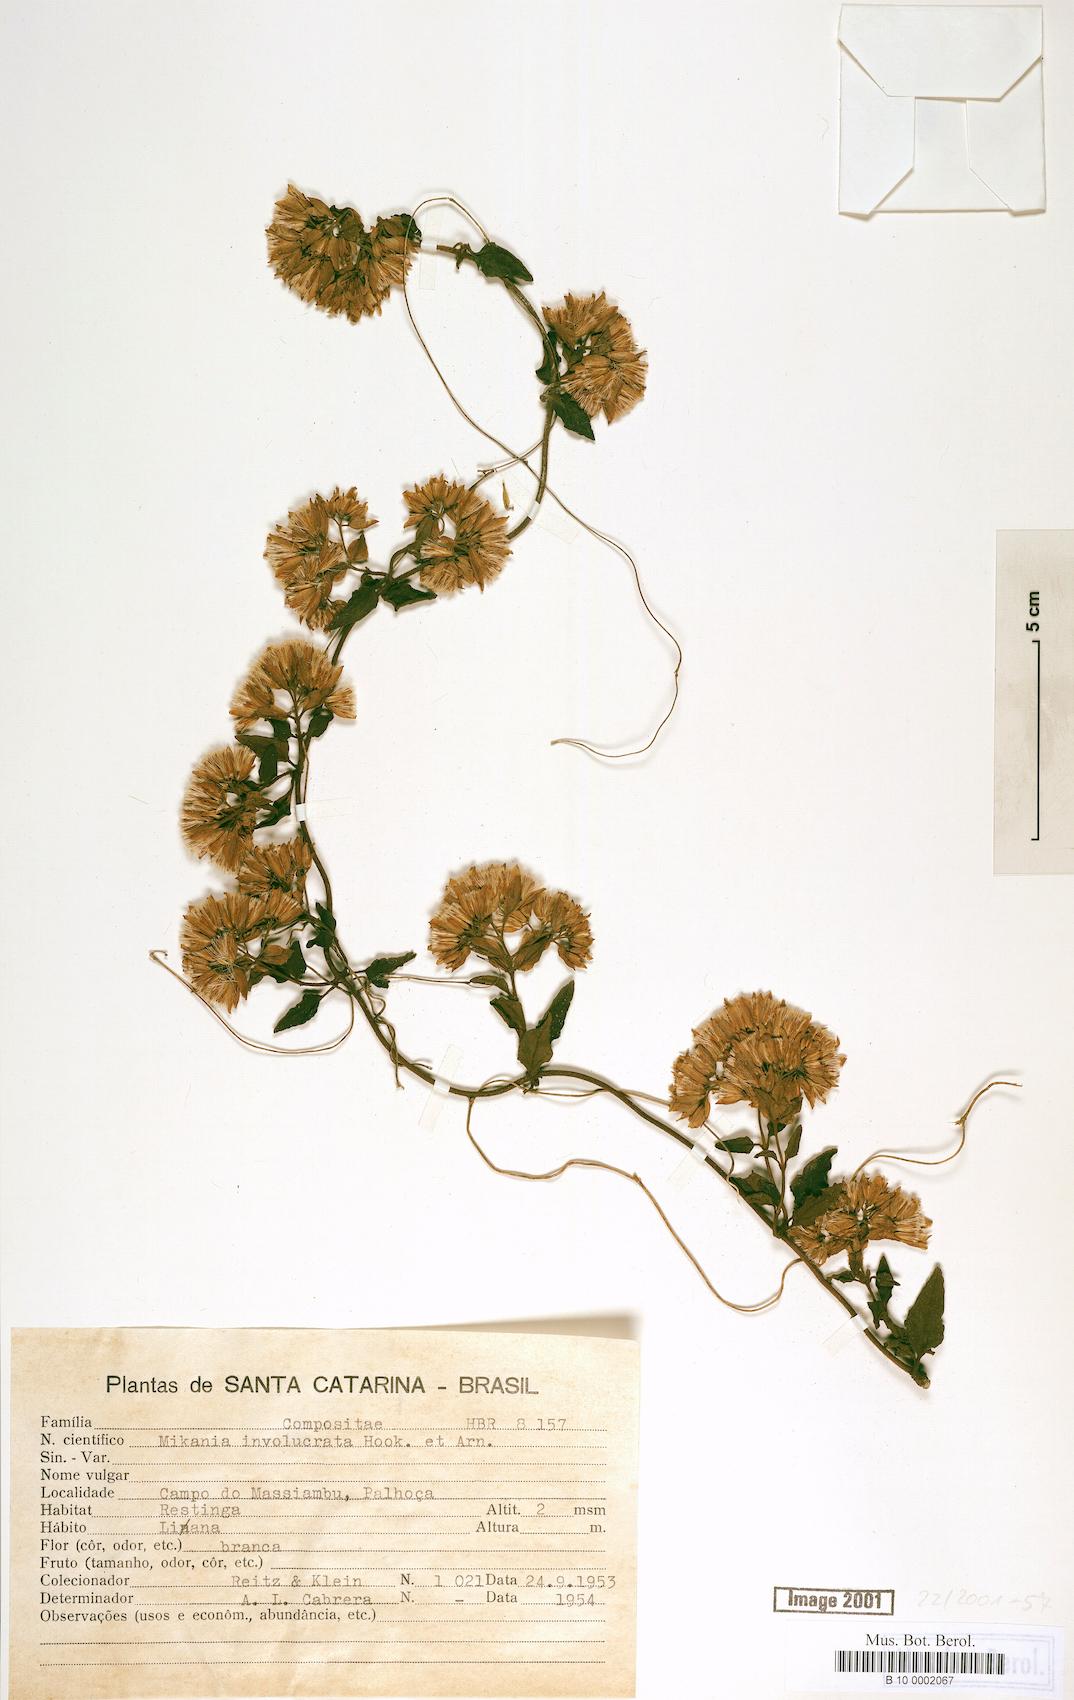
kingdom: Plantae
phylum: Tracheophyta
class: Magnoliopsida
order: Asterales
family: Asteraceae
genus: Mikania
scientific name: Mikania involucrata
